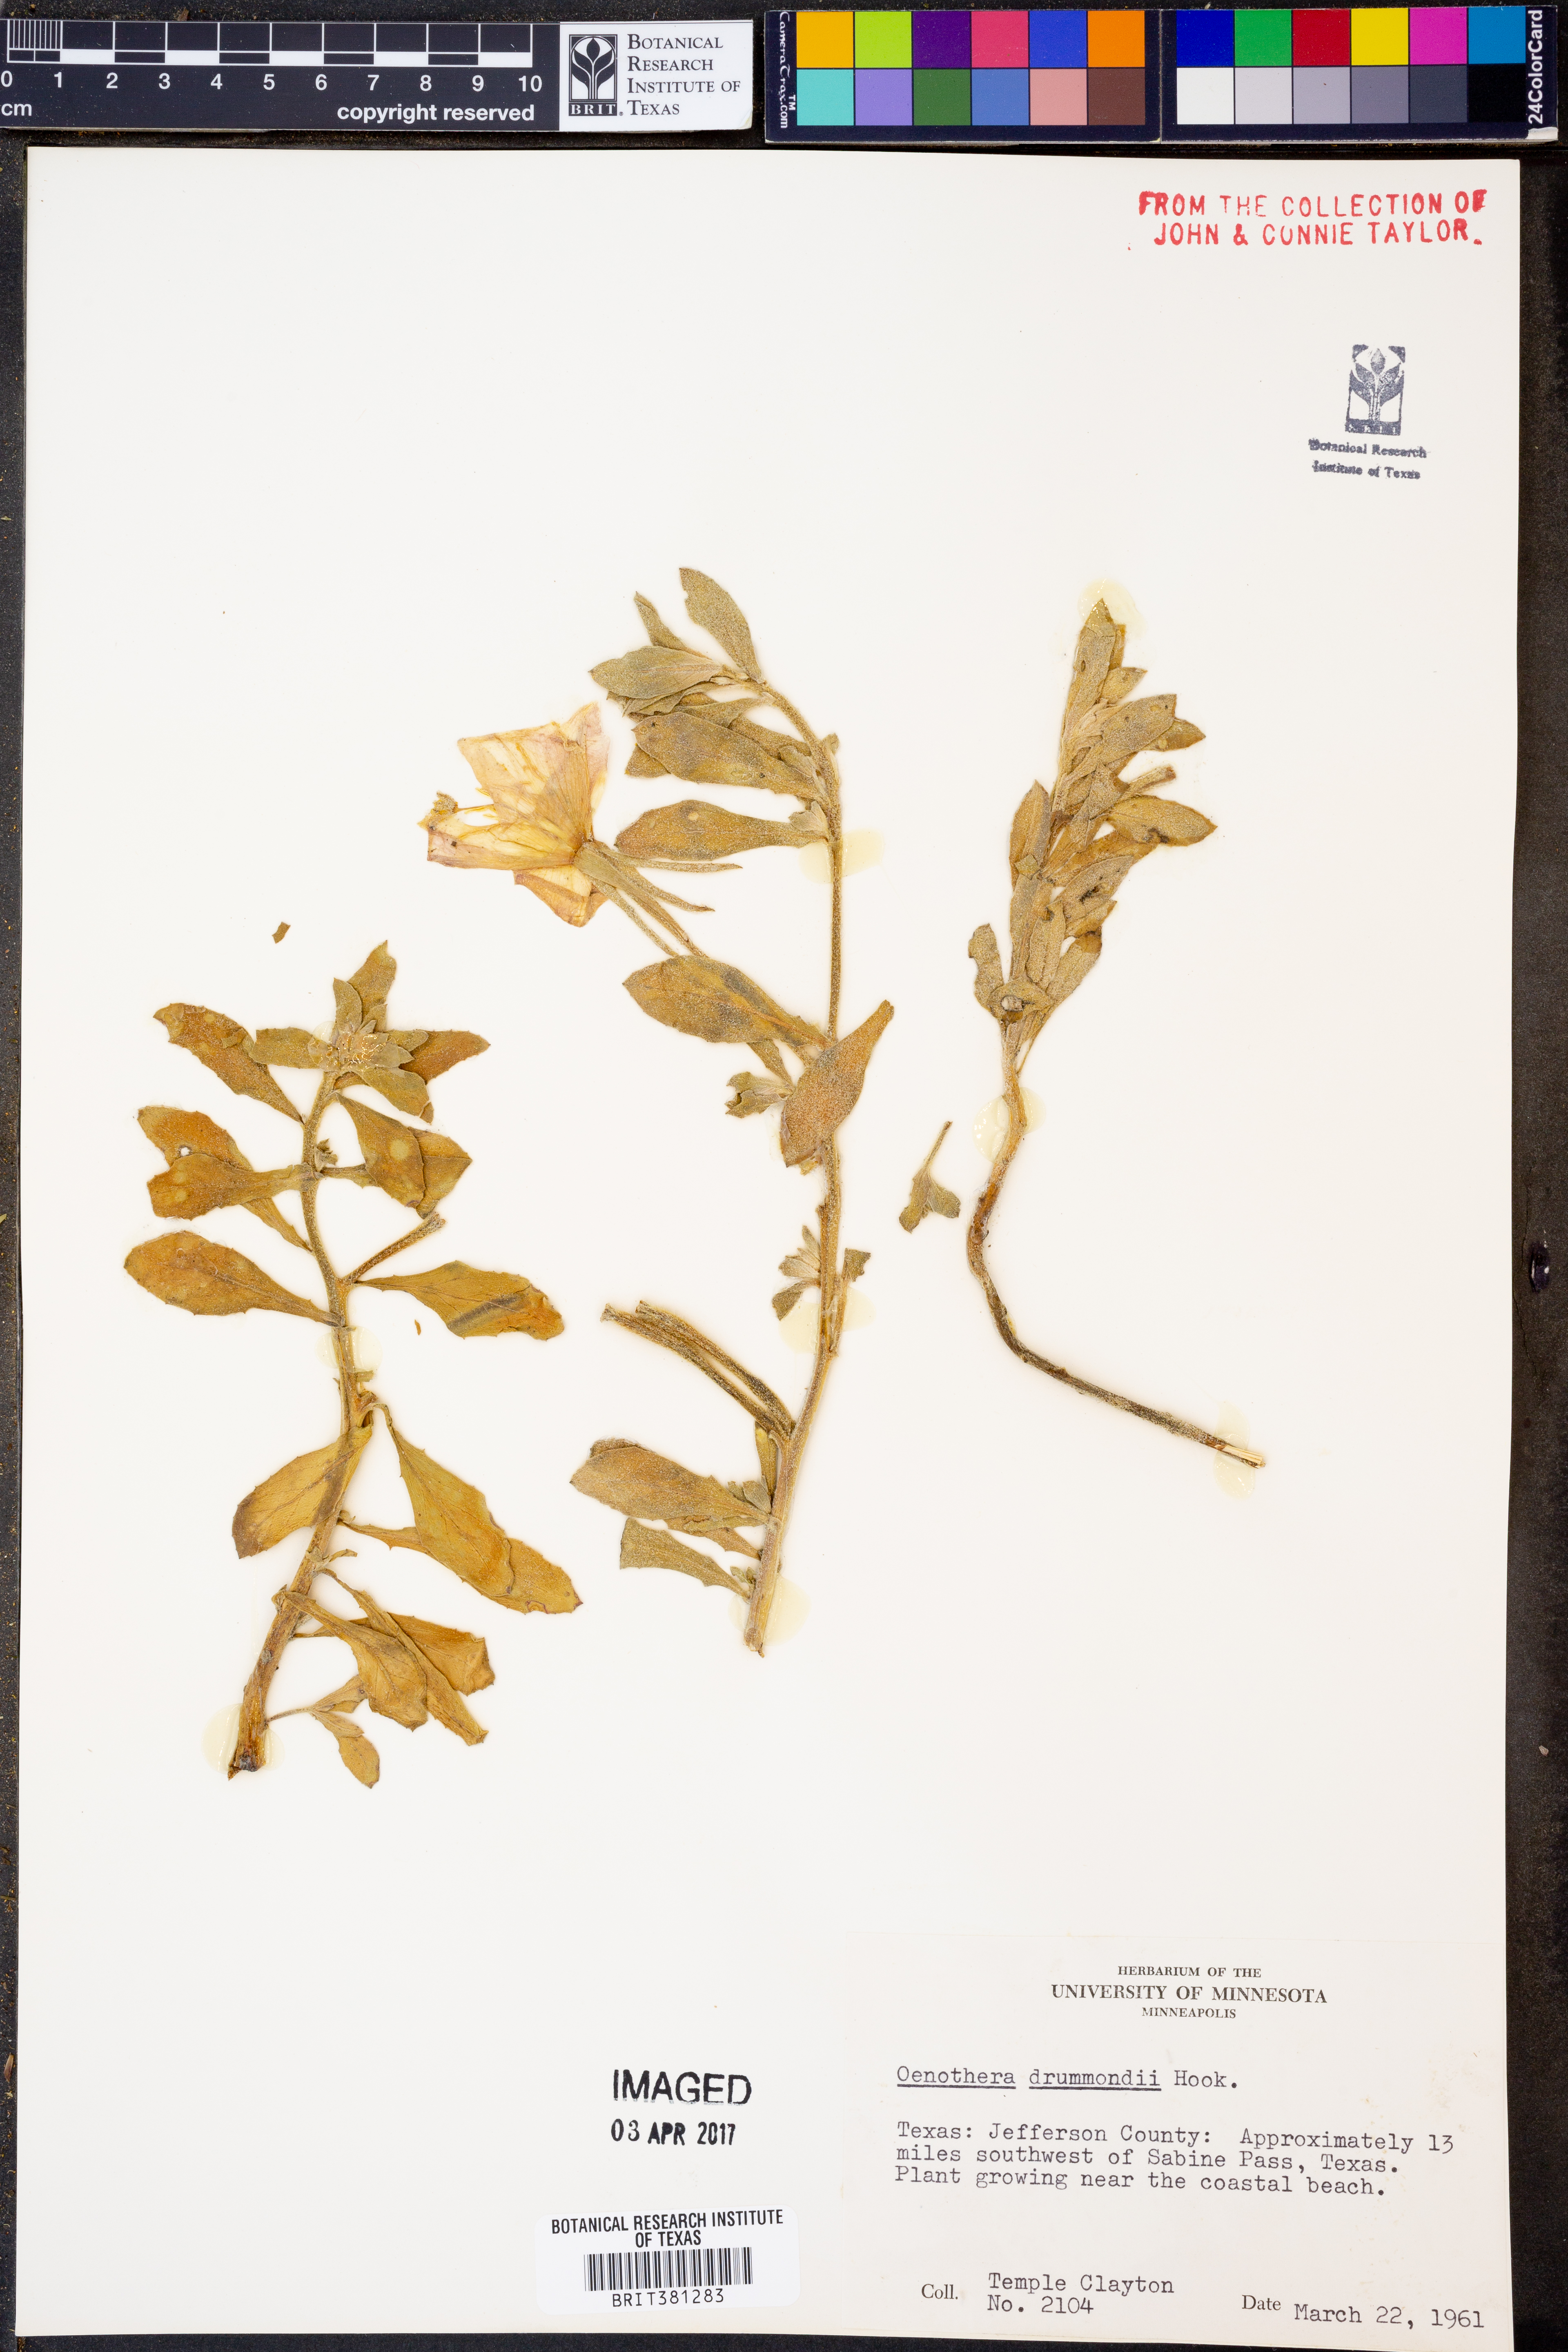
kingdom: Plantae
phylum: Tracheophyta
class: Magnoliopsida
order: Myrtales
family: Onagraceae
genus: Oenothera
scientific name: Oenothera drummondii
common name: Beach evening-primrose
